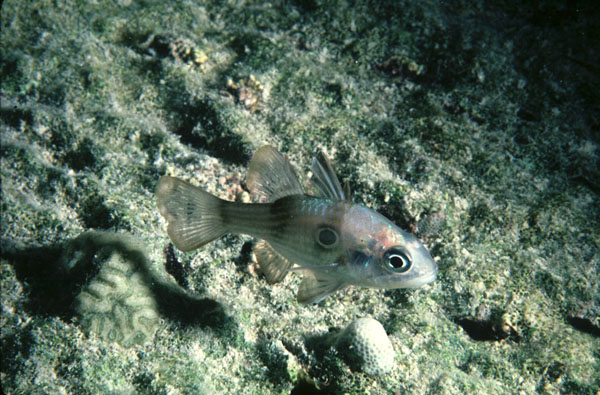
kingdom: Animalia
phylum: Chordata
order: Perciformes
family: Apogonidae
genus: Apogonichthyoides
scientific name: Apogonichthyoides taeniatus
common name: Twobelt cardinal
